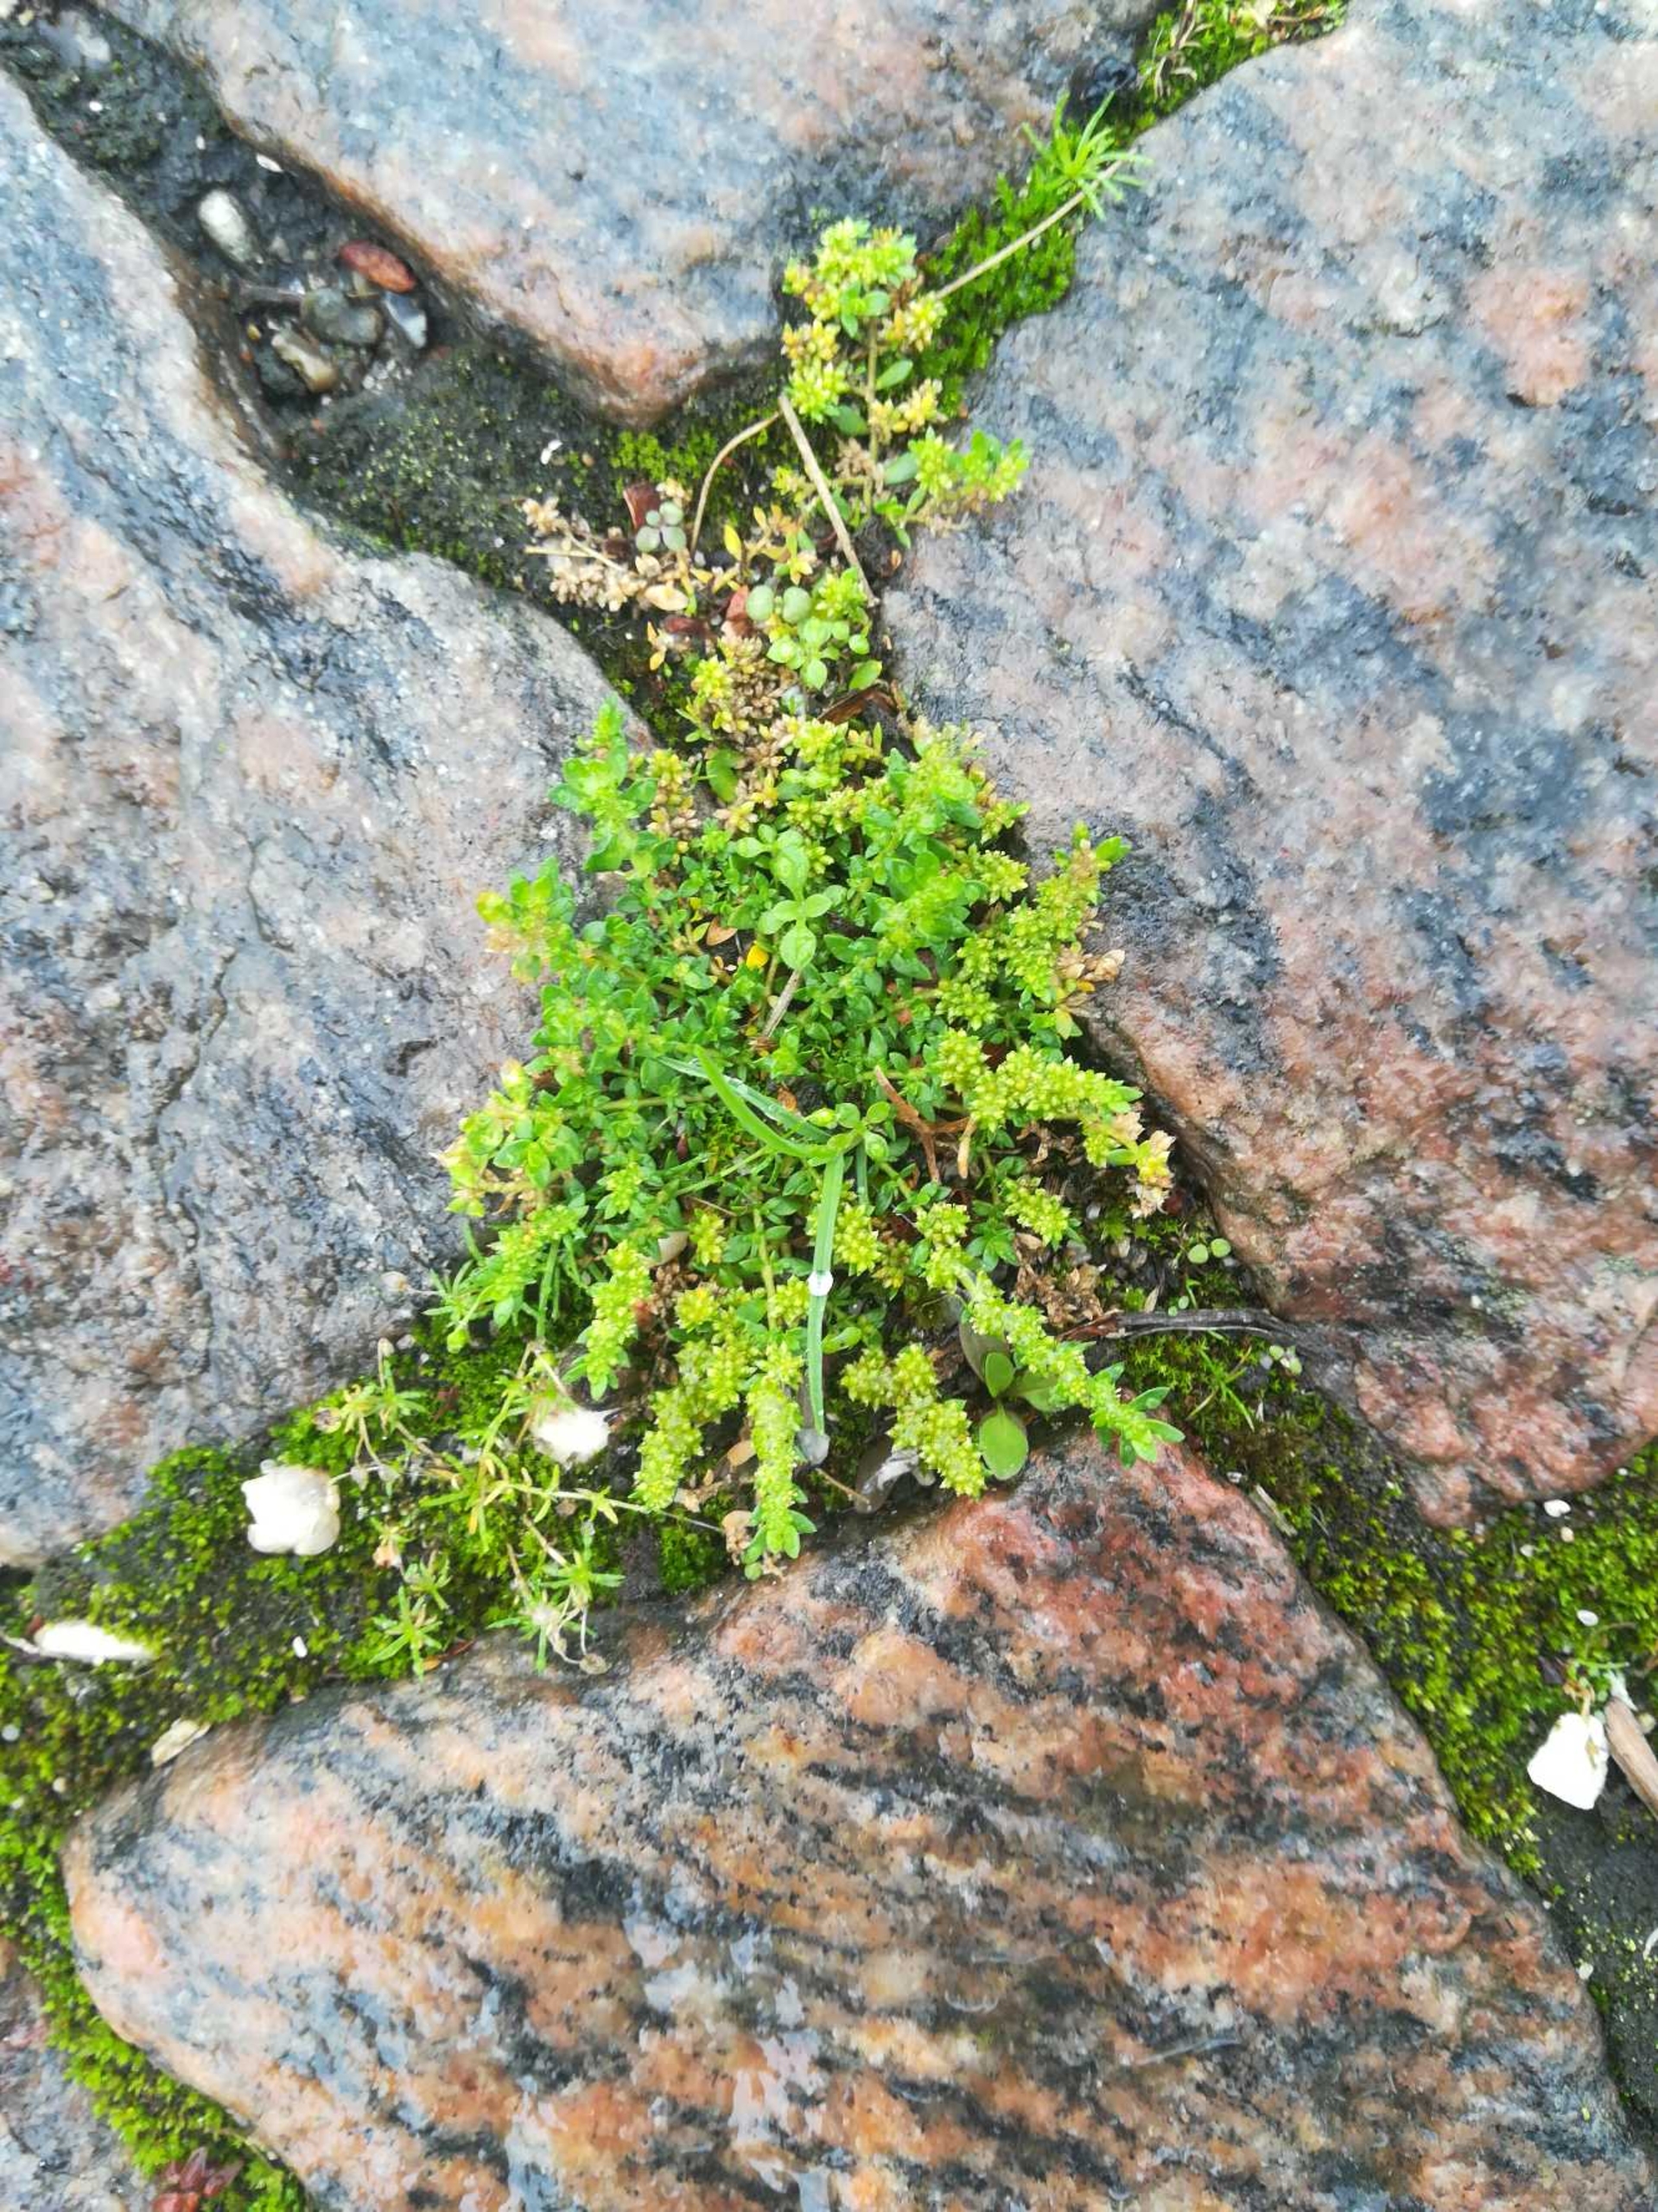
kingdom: Plantae
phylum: Tracheophyta
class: Magnoliopsida
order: Caryophyllales
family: Caryophyllaceae
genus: Herniaria
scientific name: Herniaria glabra
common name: Brudurt
